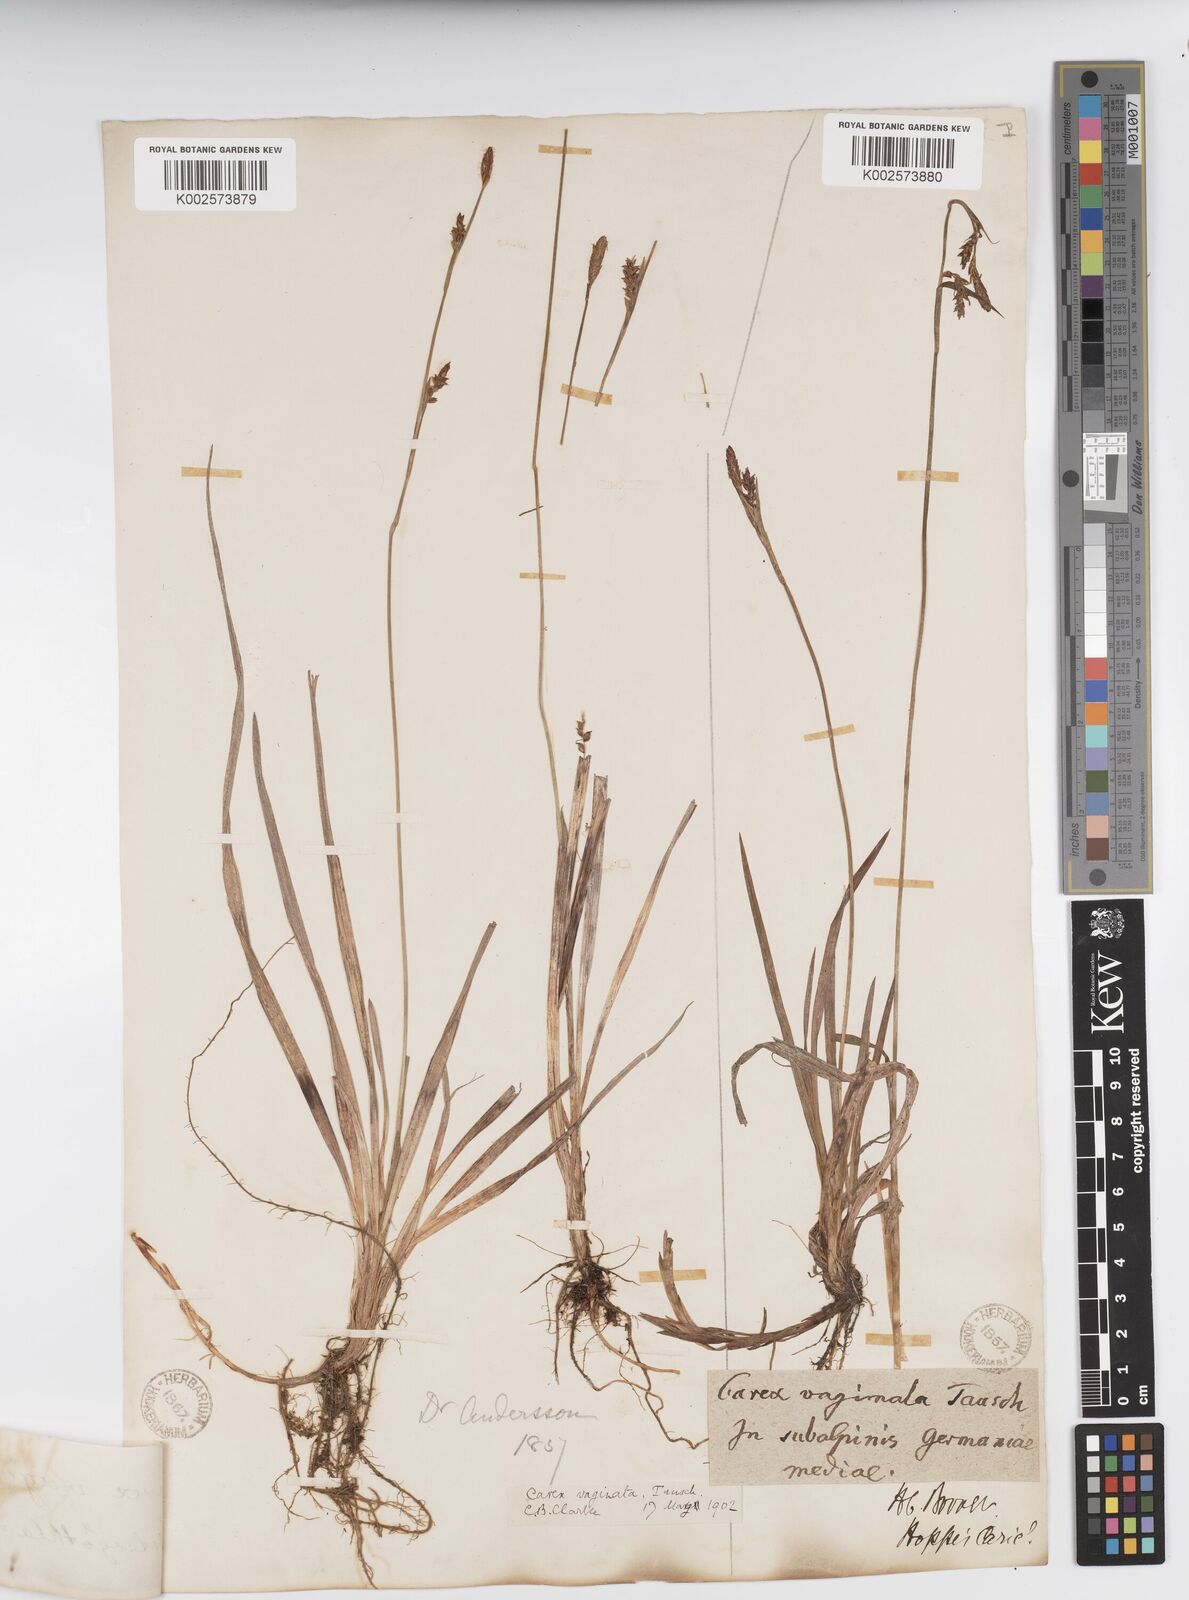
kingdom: Plantae
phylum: Tracheophyta
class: Liliopsida
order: Poales
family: Cyperaceae
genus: Carex
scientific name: Carex vaginata
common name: Sheathed sedge
